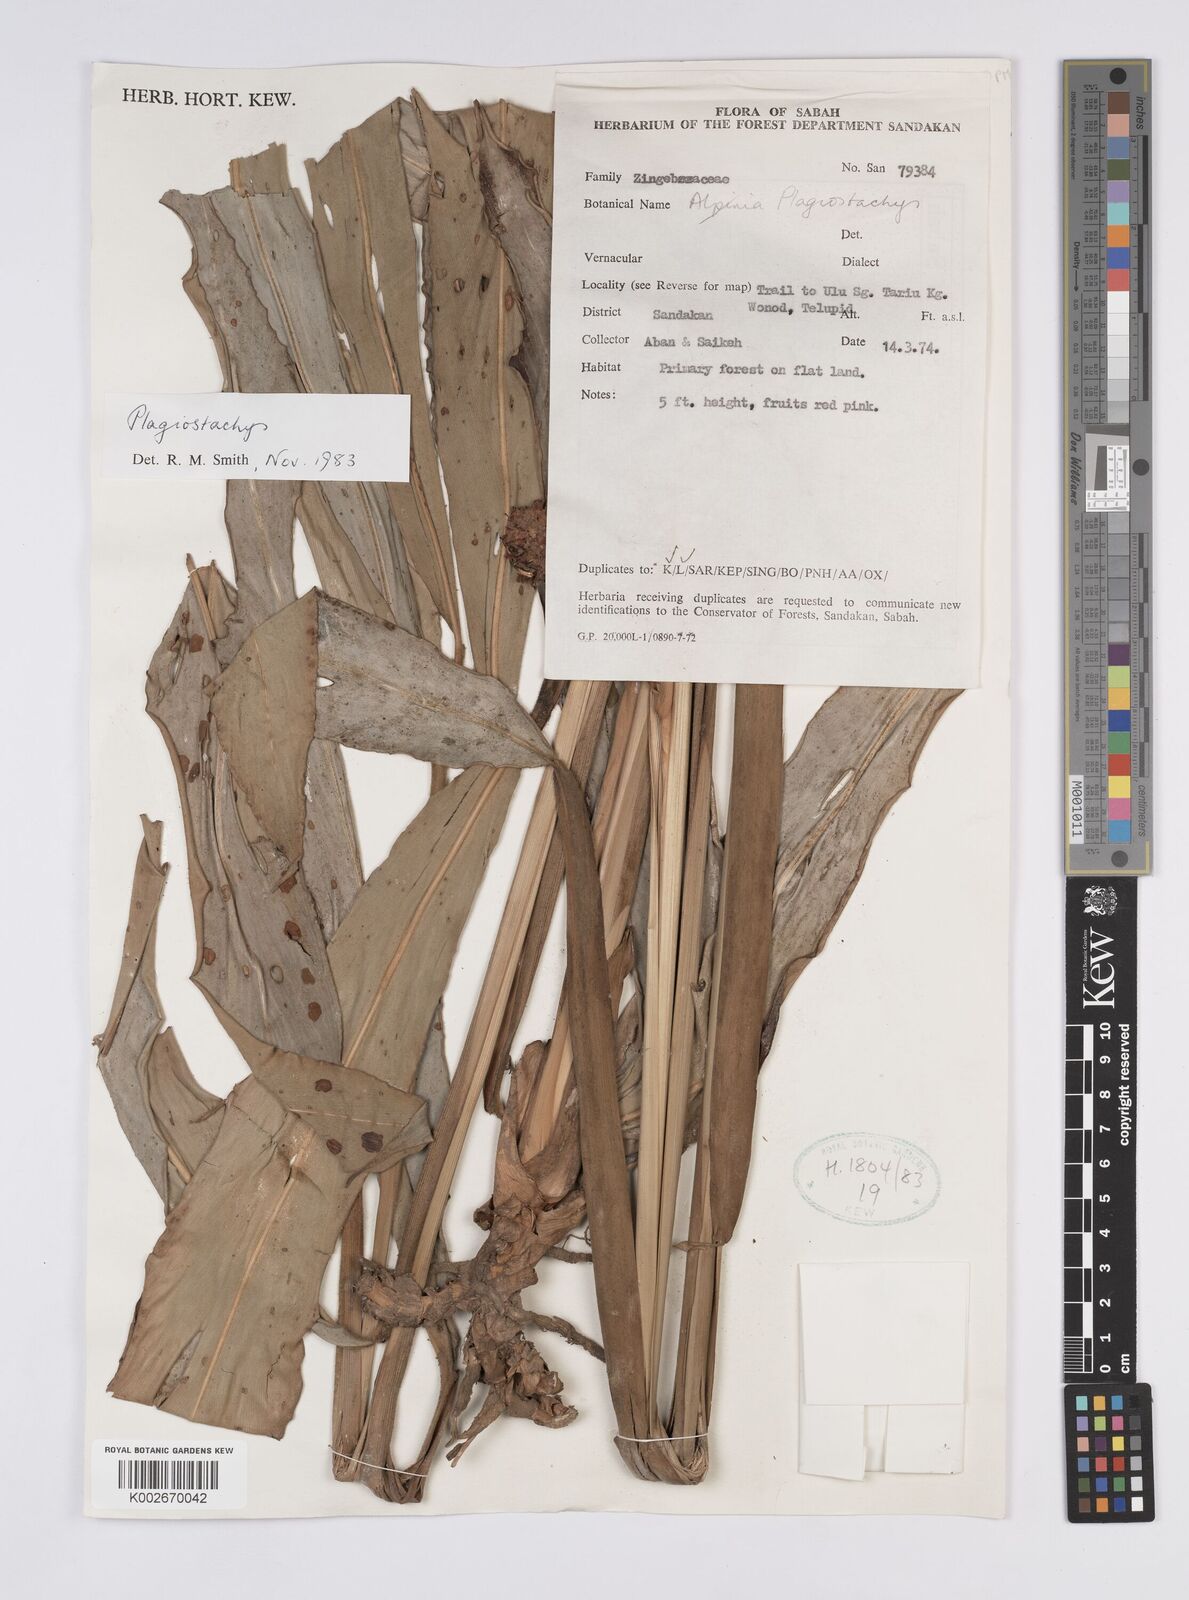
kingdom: Plantae
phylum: Tracheophyta
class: Liliopsida
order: Zingiberales
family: Zingiberaceae
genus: Plagiostachys
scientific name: Plagiostachys
